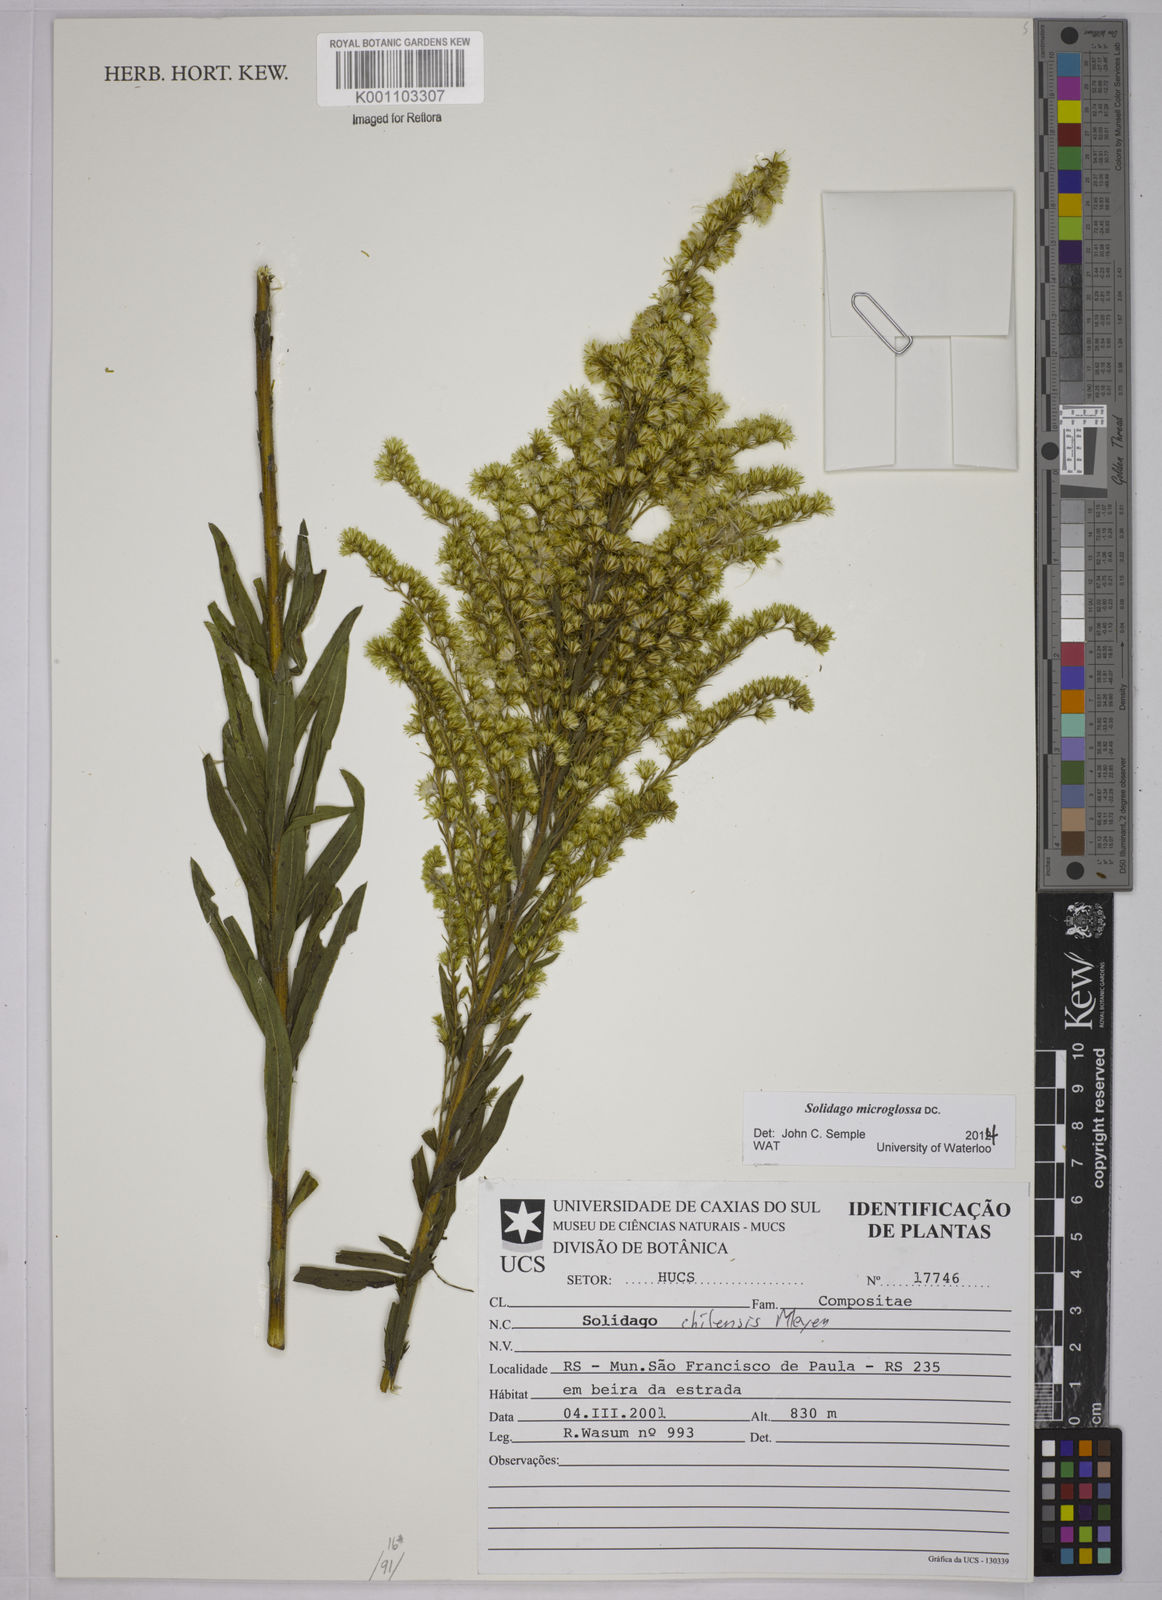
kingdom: Plantae
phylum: Tracheophyta
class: Magnoliopsida
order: Asterales
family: Asteraceae
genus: Solidago
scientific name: Solidago chilensis
